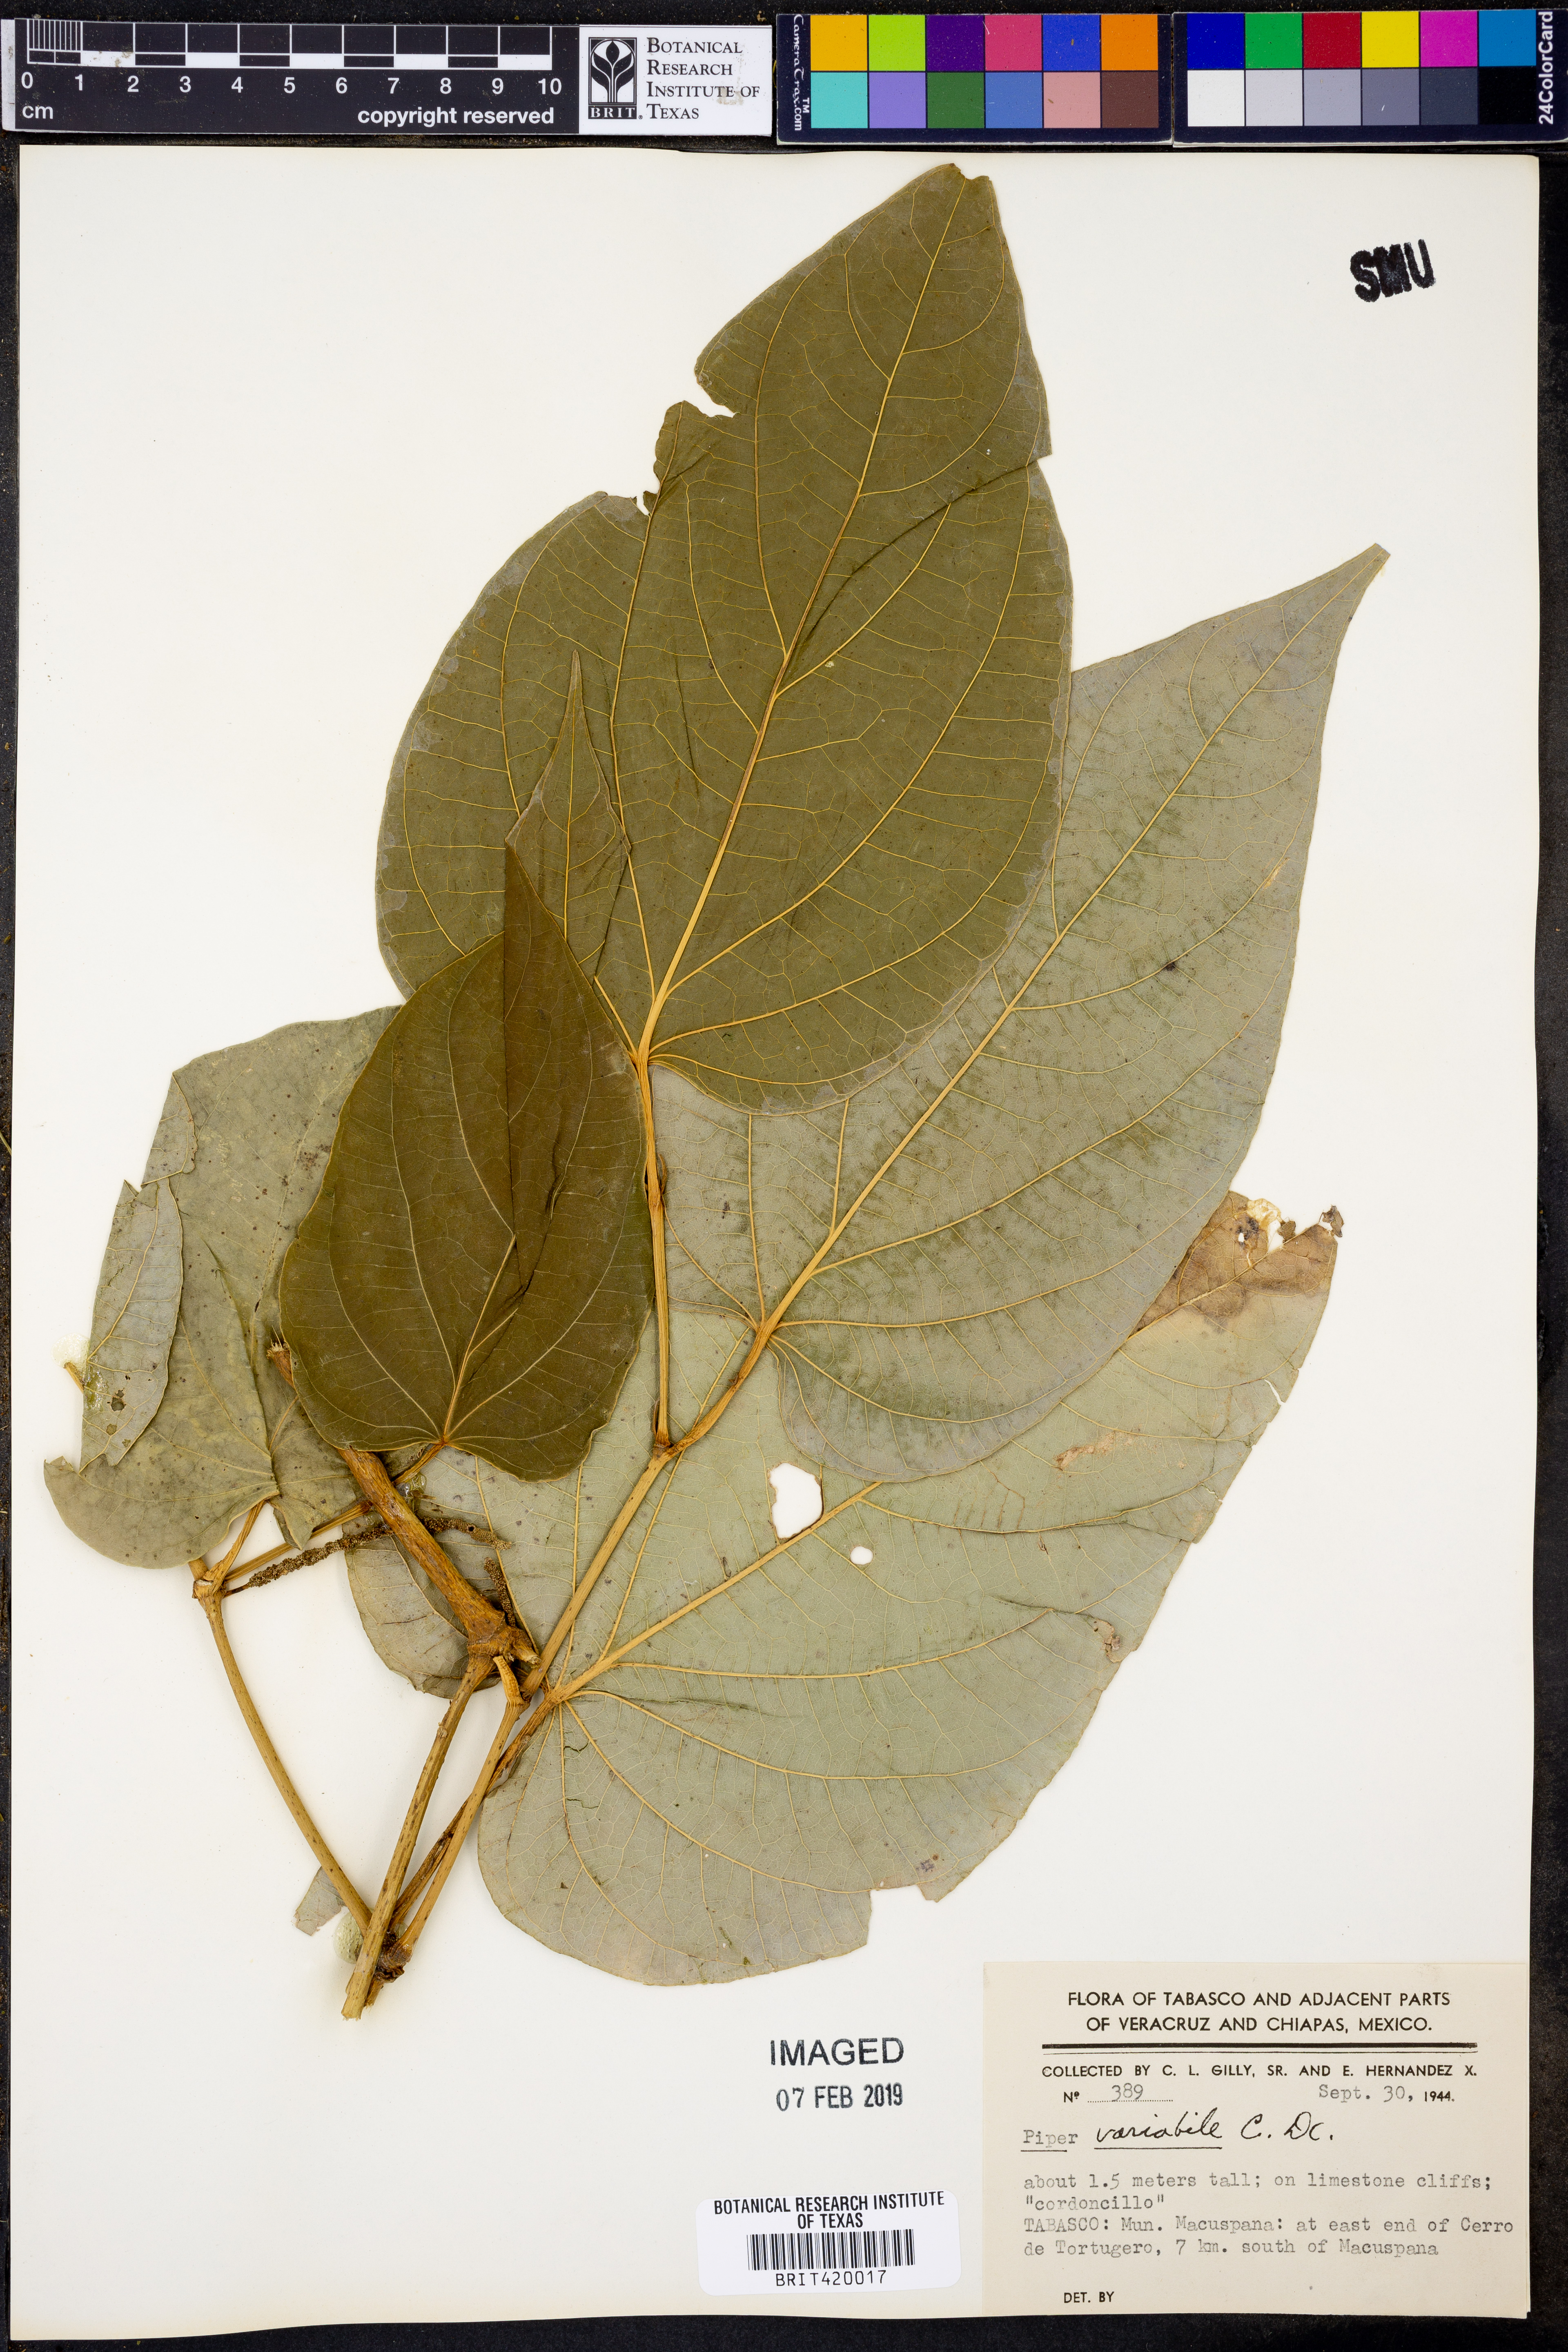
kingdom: Plantae
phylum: Tracheophyta
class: Magnoliopsida
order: Piperales
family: Piperaceae
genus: Piper
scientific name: Piper variabile
